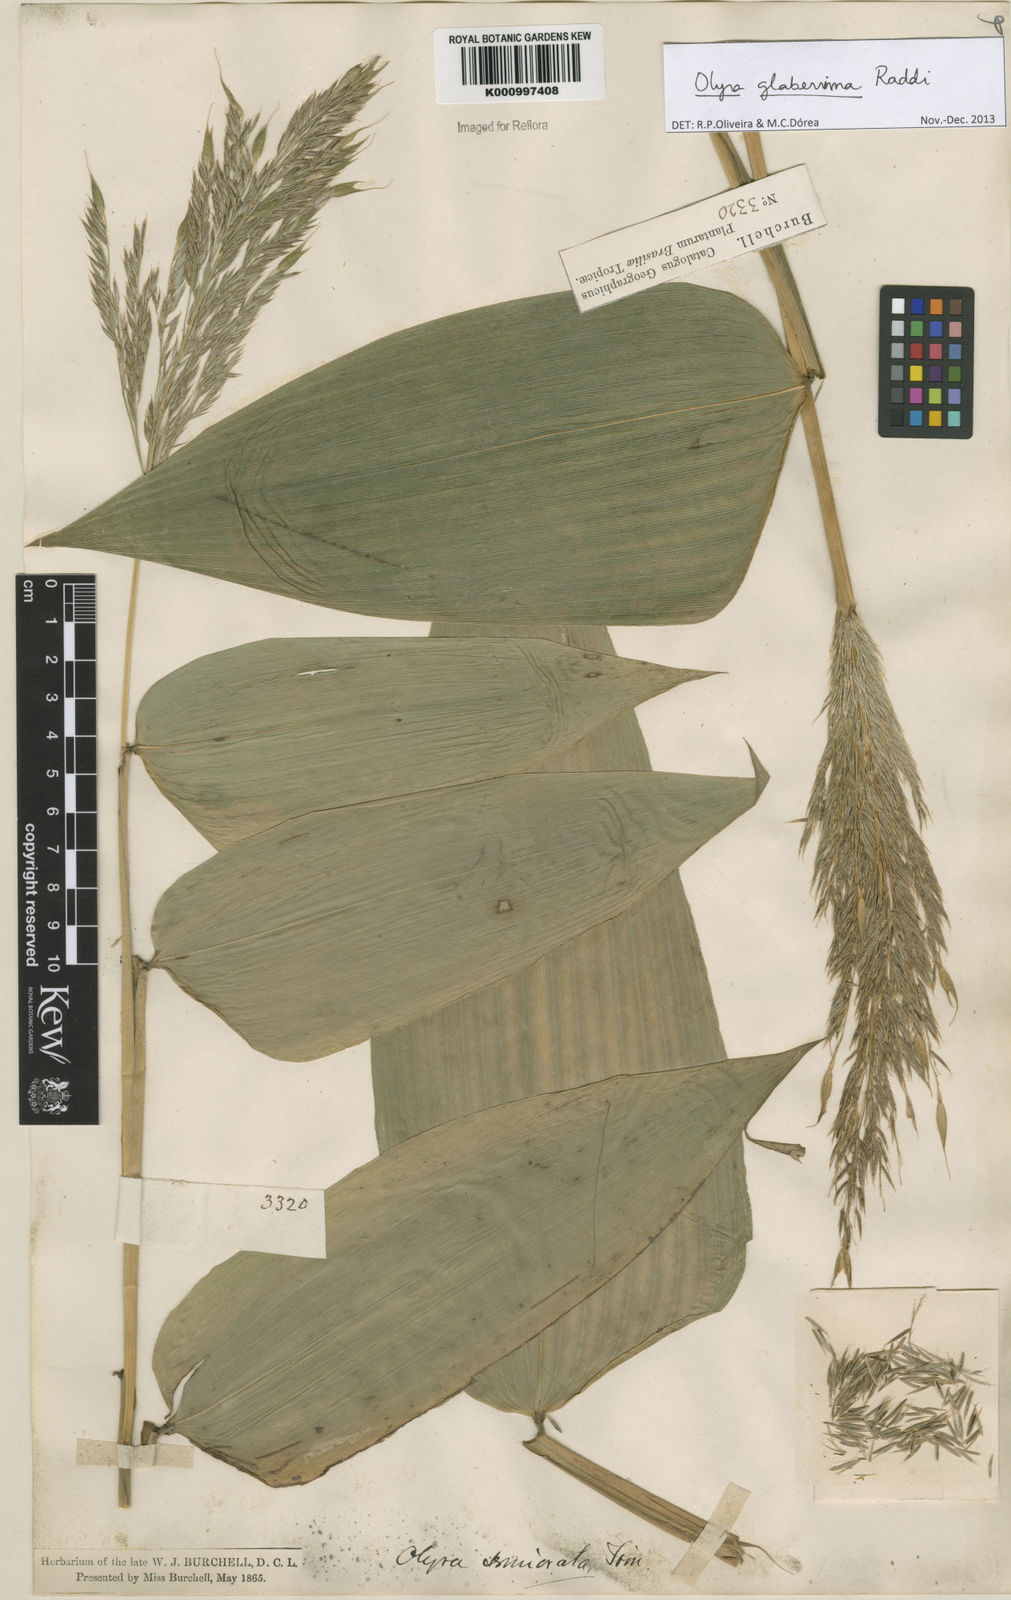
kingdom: Plantae
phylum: Tracheophyta
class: Liliopsida
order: Poales
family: Poaceae
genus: Olyra
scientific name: Olyra glaberrima
